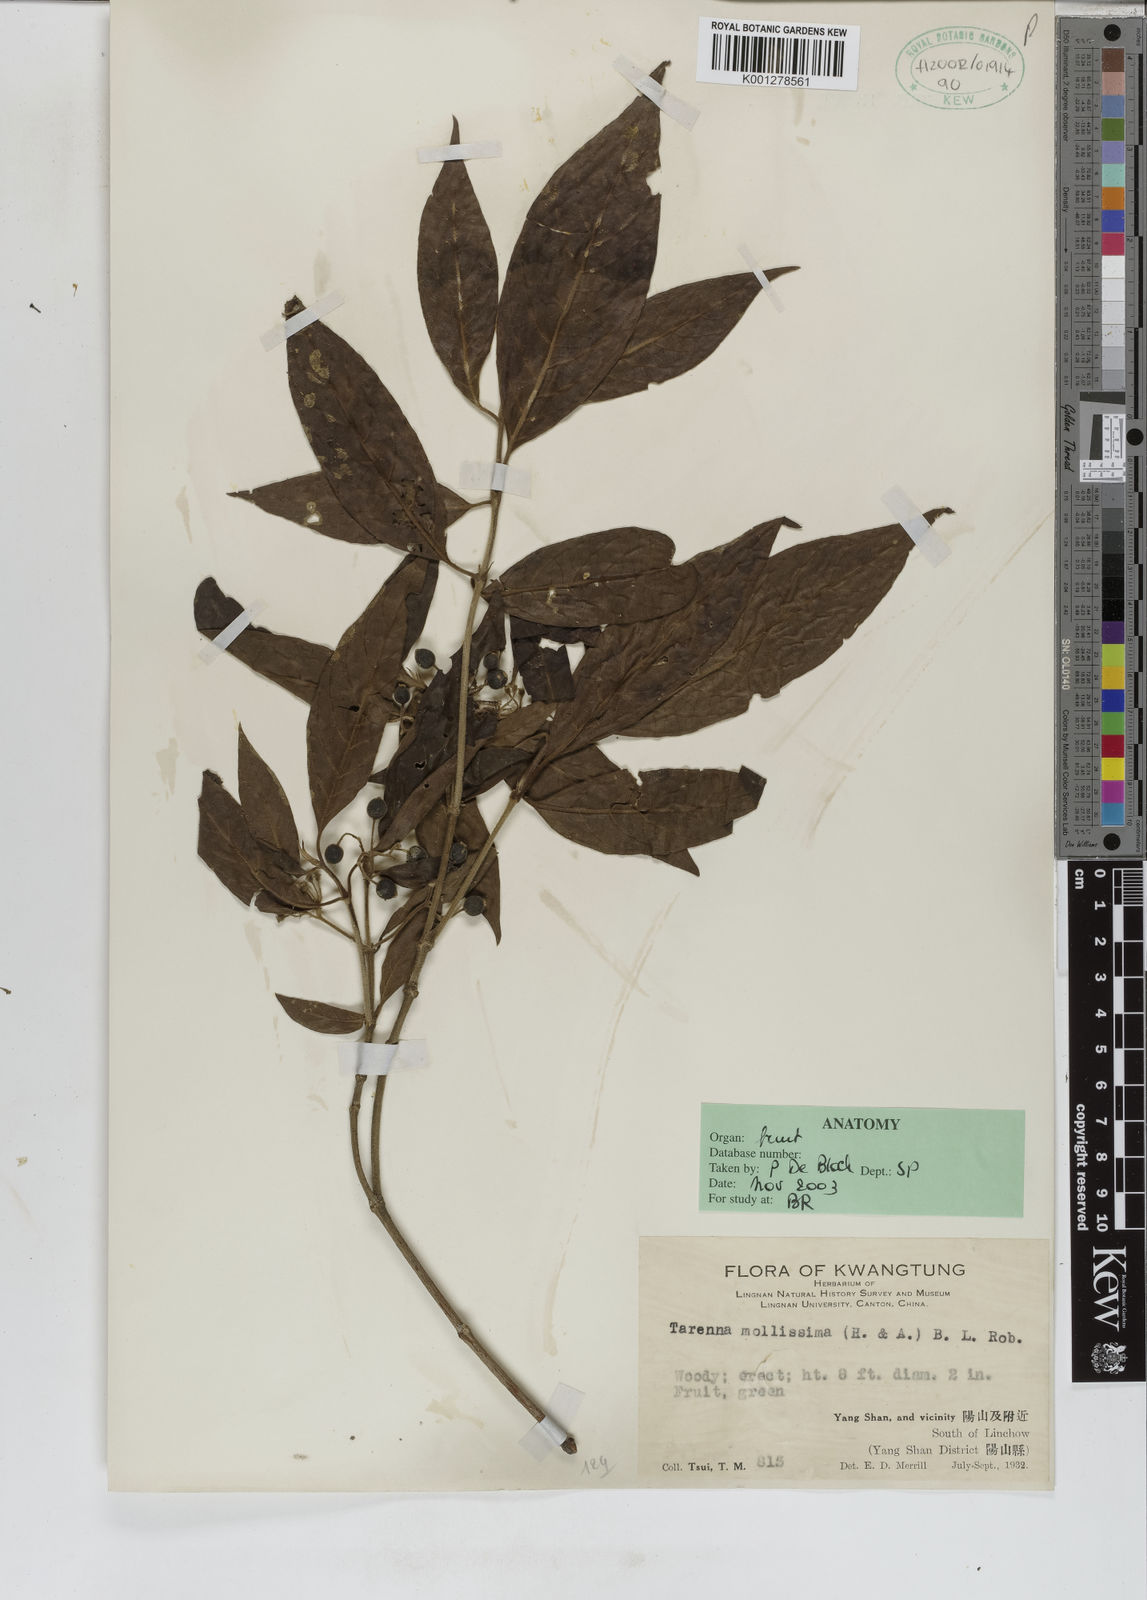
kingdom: Plantae
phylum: Tracheophyta
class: Magnoliopsida
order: Gentianales
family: Rubiaceae
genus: Tarenna
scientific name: Tarenna mollissima
